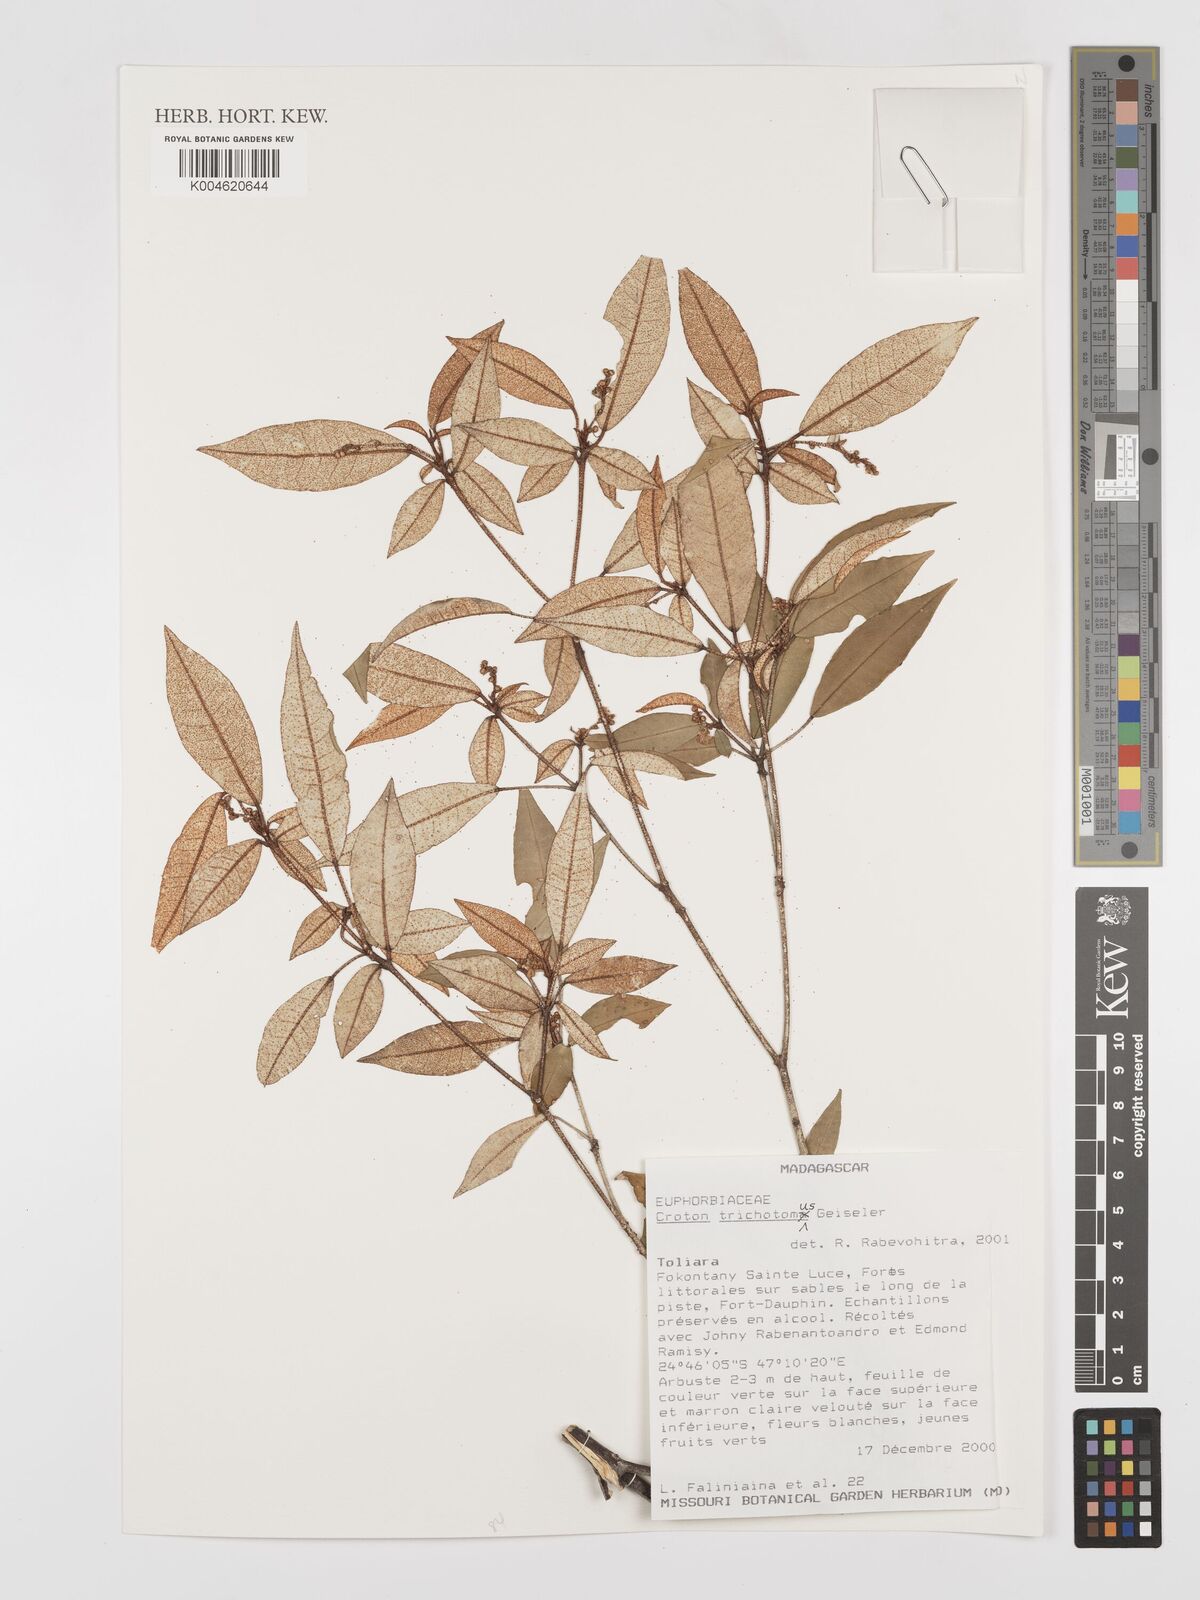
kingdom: Plantae
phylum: Tracheophyta
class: Magnoliopsida
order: Malpighiales
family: Euphorbiaceae
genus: Croton
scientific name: Croton trichotomus
